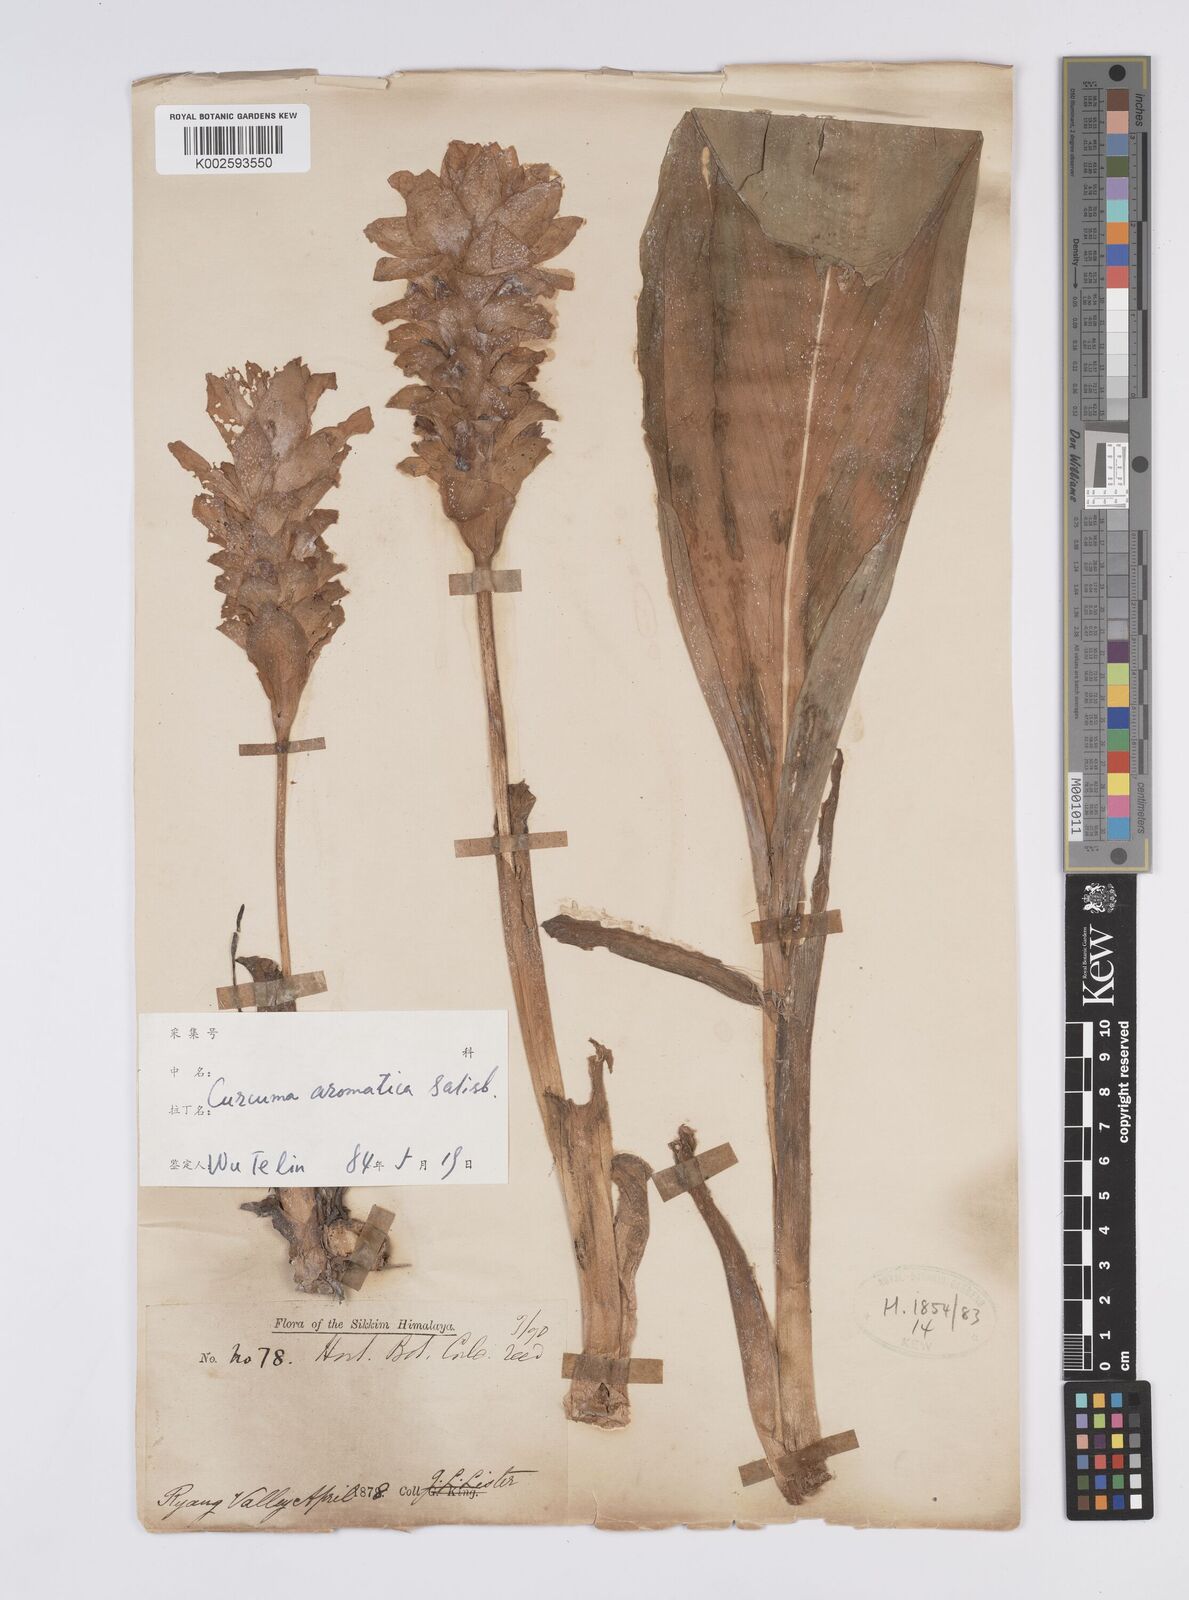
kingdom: Plantae
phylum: Tracheophyta
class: Liliopsida
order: Zingiberales
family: Zingiberaceae
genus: Curcuma
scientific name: Curcuma aromatica
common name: Wild turmeric
